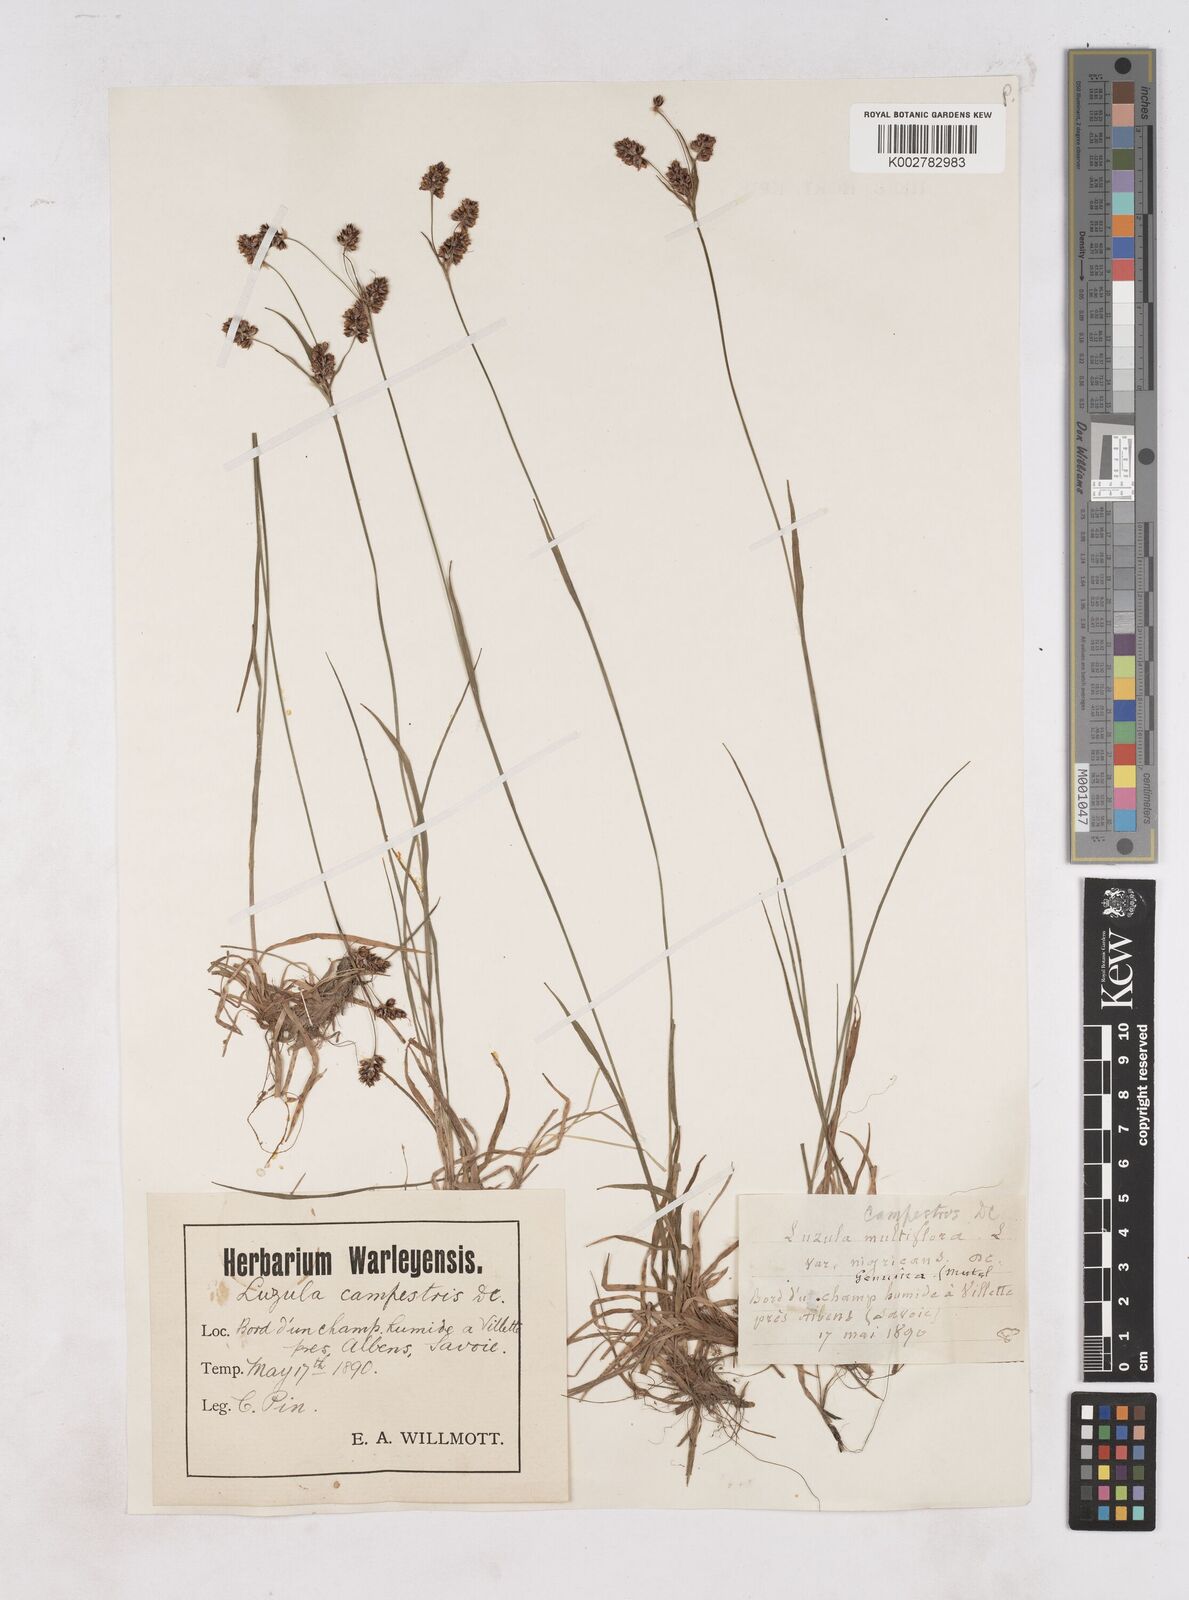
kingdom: Plantae
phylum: Tracheophyta
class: Liliopsida
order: Poales
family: Juncaceae
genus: Luzula
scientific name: Luzula campestris
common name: Field wood-rush
